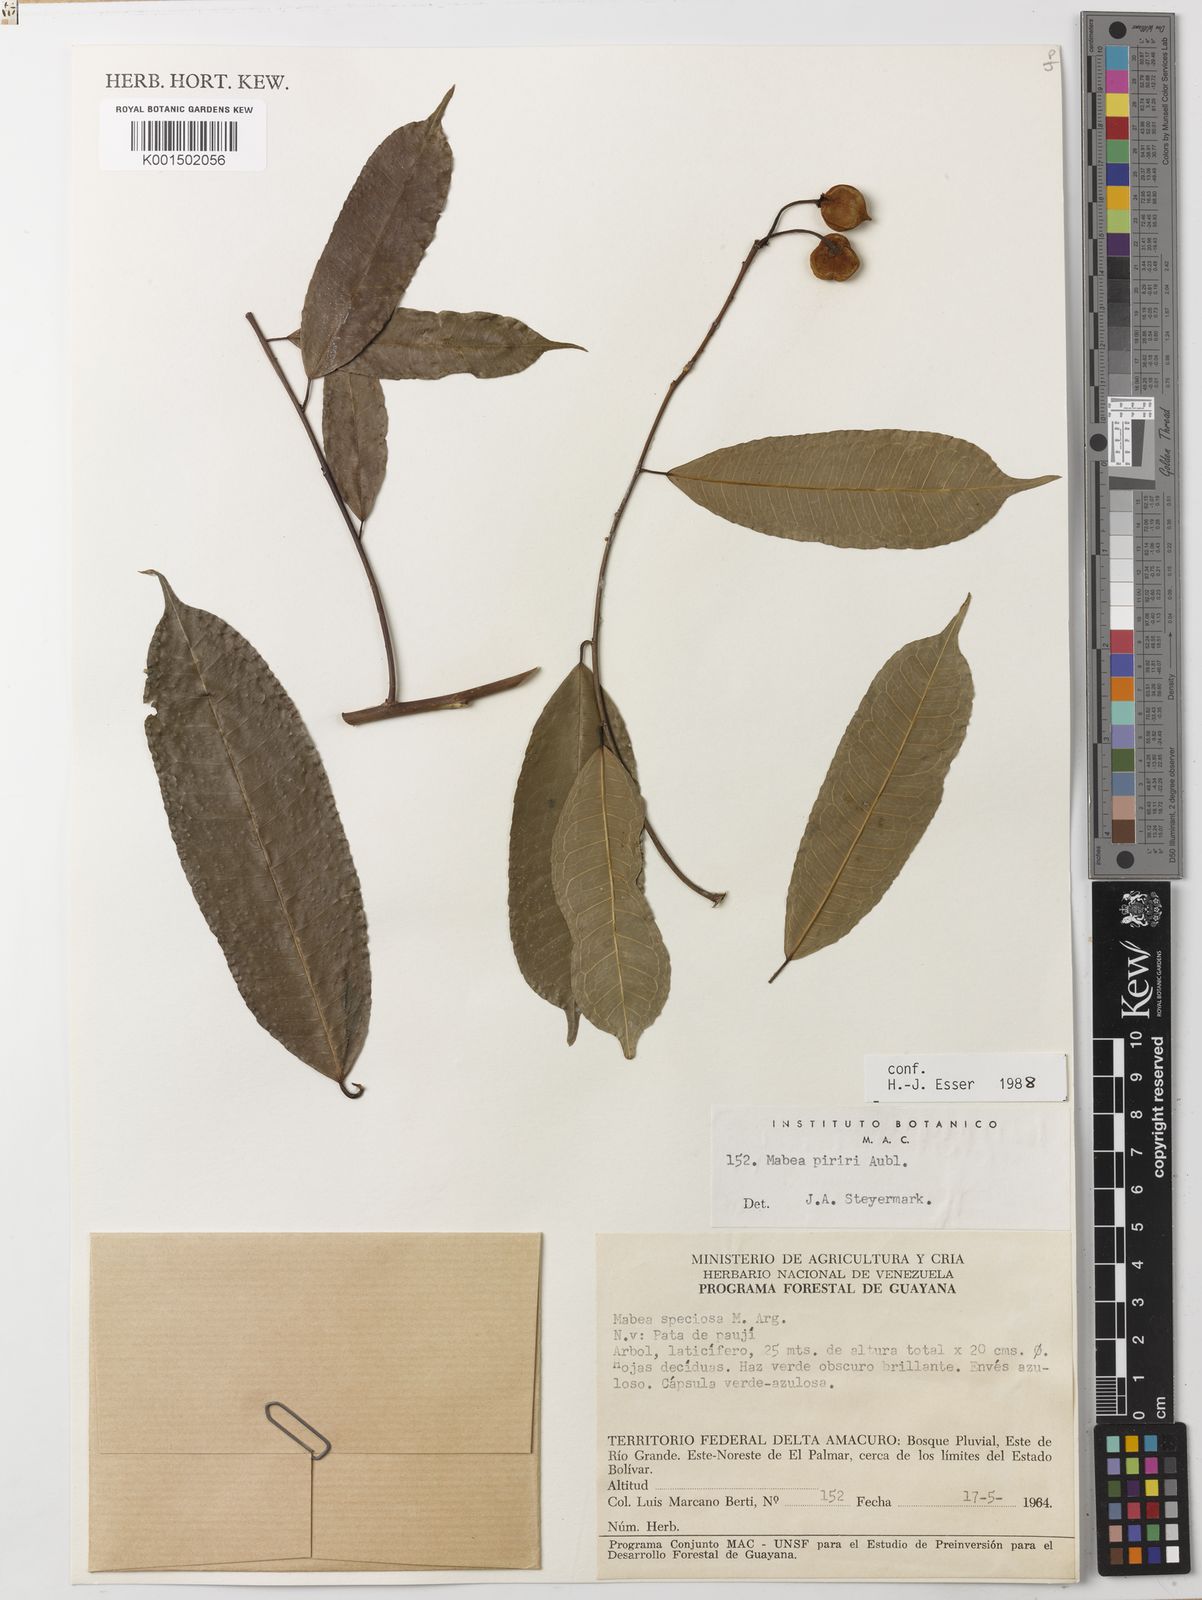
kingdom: Plantae
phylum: Tracheophyta
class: Magnoliopsida
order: Malpighiales
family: Euphorbiaceae
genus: Mabea
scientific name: Mabea piriri
